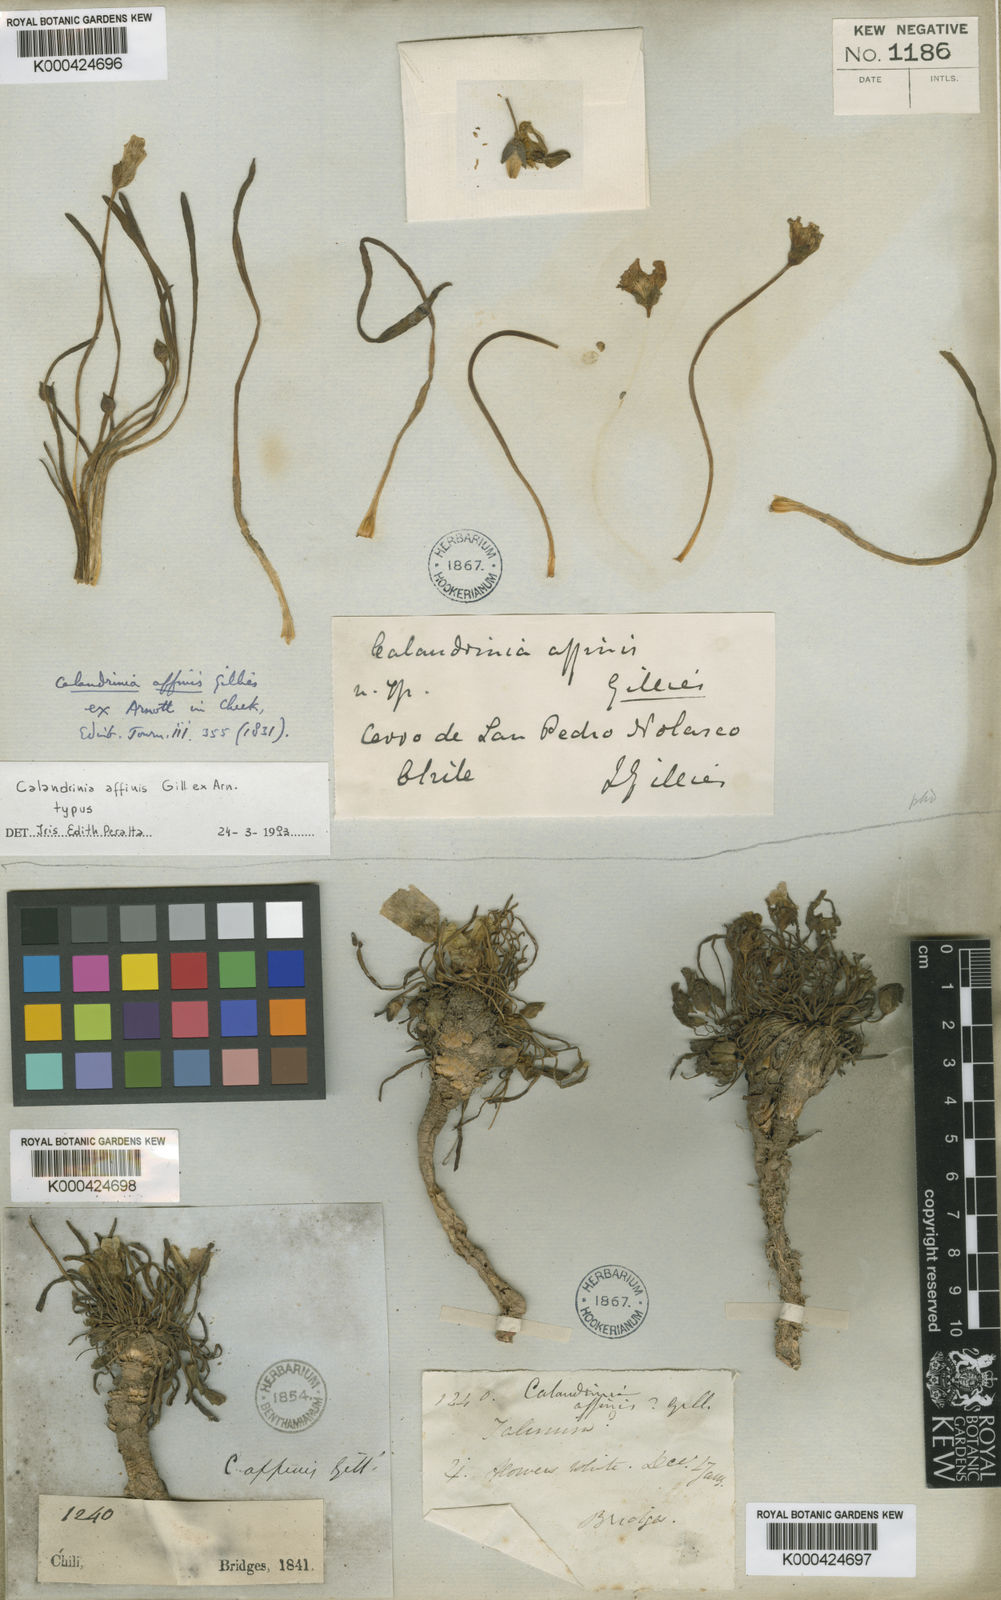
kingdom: Plantae
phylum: Tracheophyta
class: Magnoliopsida
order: Caryophyllales
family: Montiaceae
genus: Calandrinia
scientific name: Calandrinia affinis
